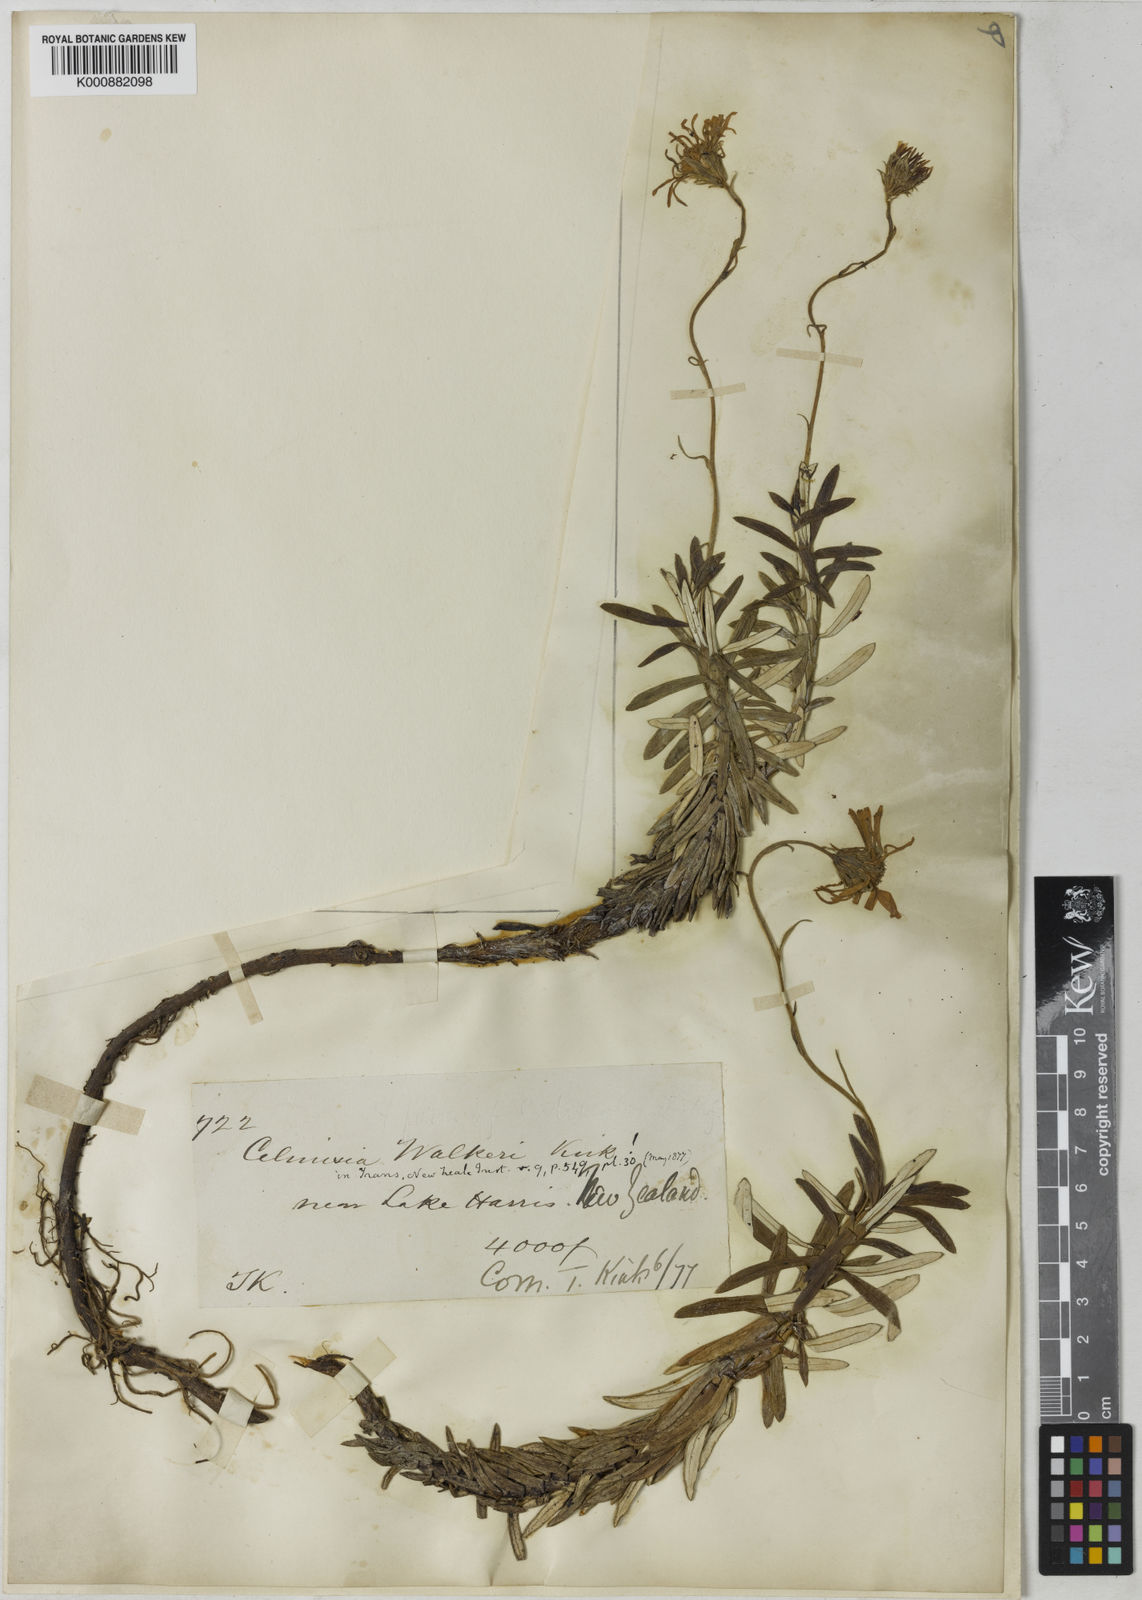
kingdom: Plantae
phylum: Tracheophyta
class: Magnoliopsida
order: Asterales
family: Asteraceae
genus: Celmisia
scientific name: Celmisia walkeri
